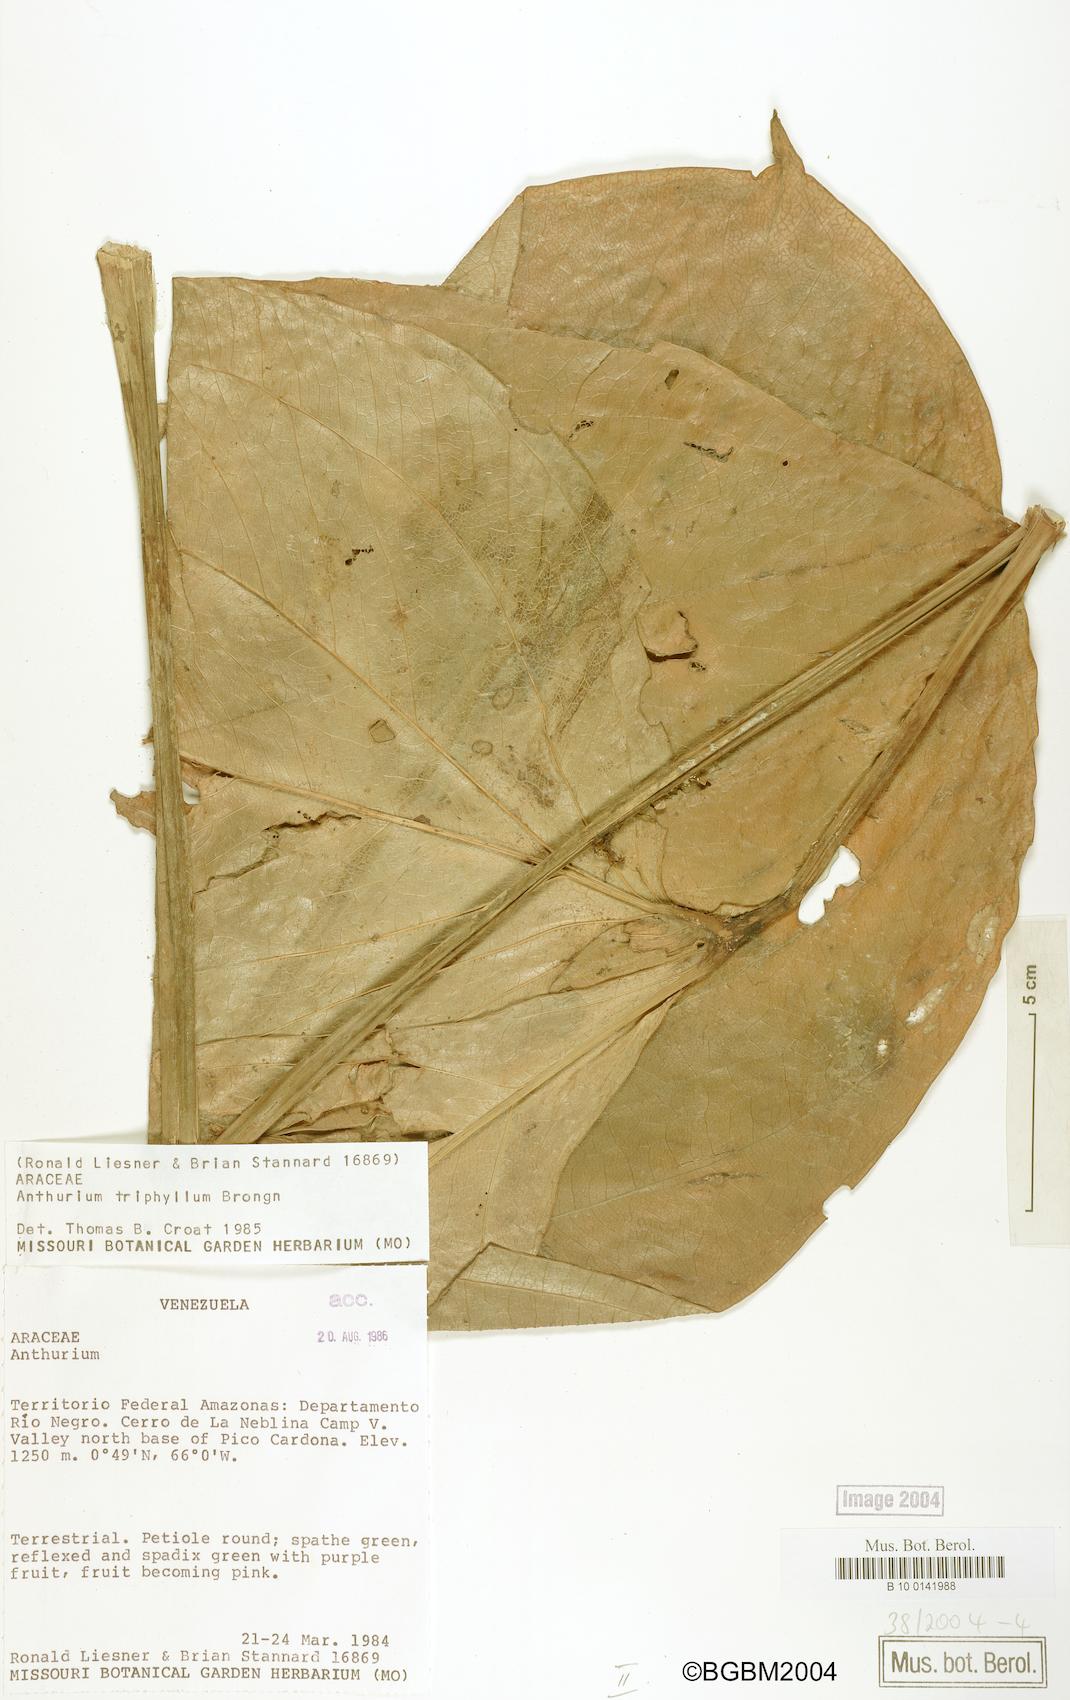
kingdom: Plantae
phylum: Tracheophyta
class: Liliopsida
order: Alismatales
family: Araceae
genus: Anthurium
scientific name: Anthurium triphyllum
